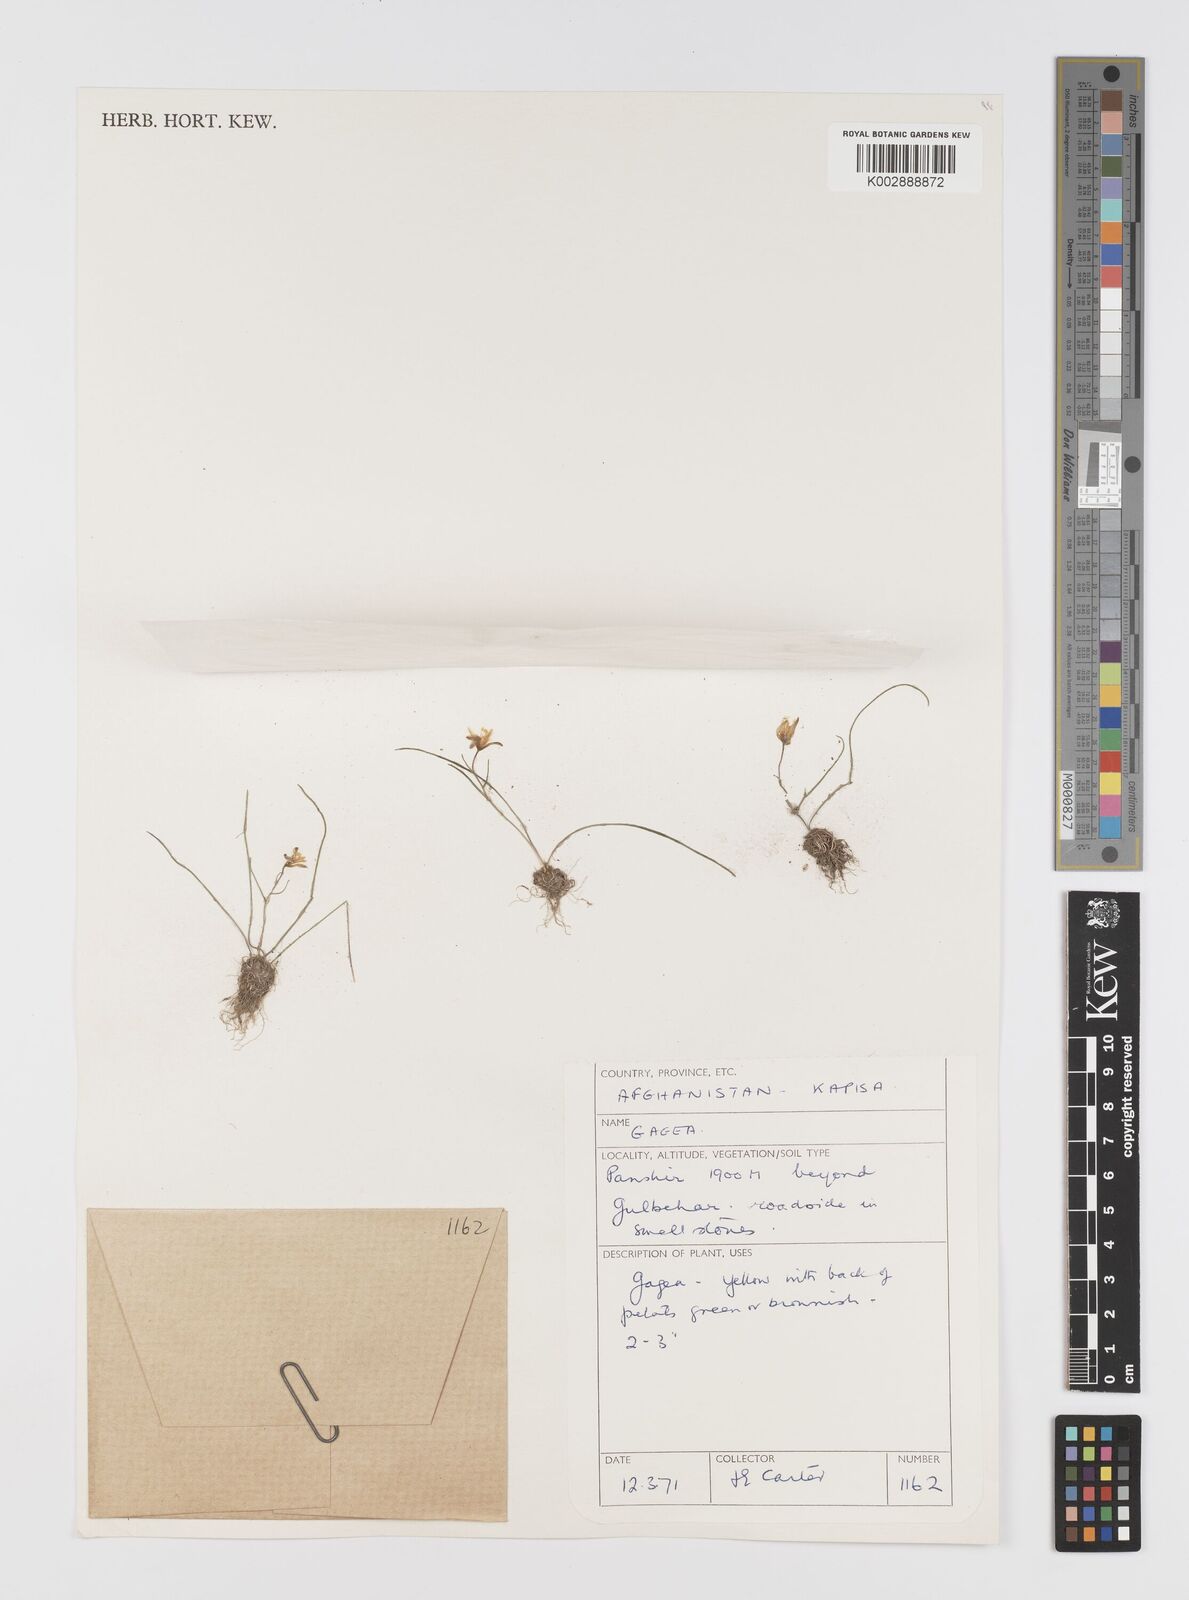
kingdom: Plantae
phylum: Tracheophyta
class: Liliopsida
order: Liliales
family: Liliaceae
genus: Gagea
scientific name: Gagea
